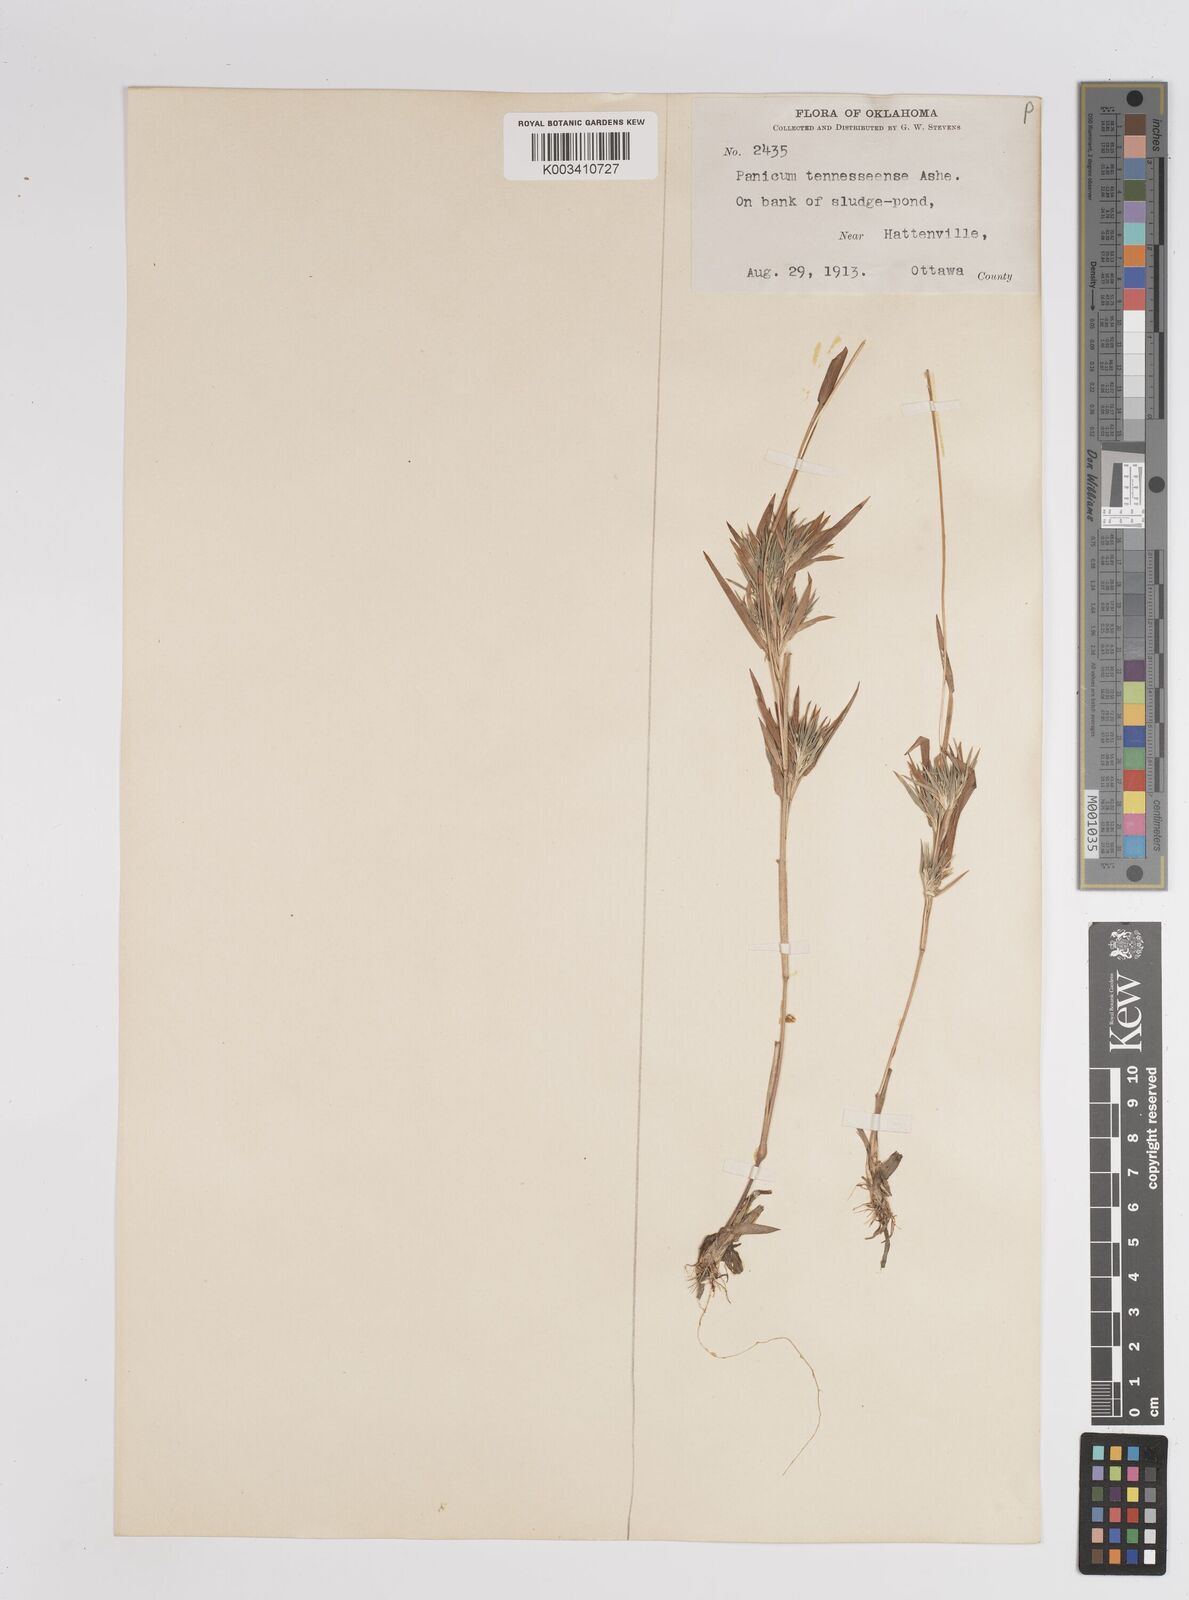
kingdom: Plantae
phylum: Tracheophyta
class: Liliopsida
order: Poales
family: Poaceae
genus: Dichanthelium
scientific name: Dichanthelium acuminatum
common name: Hairy panic grass
